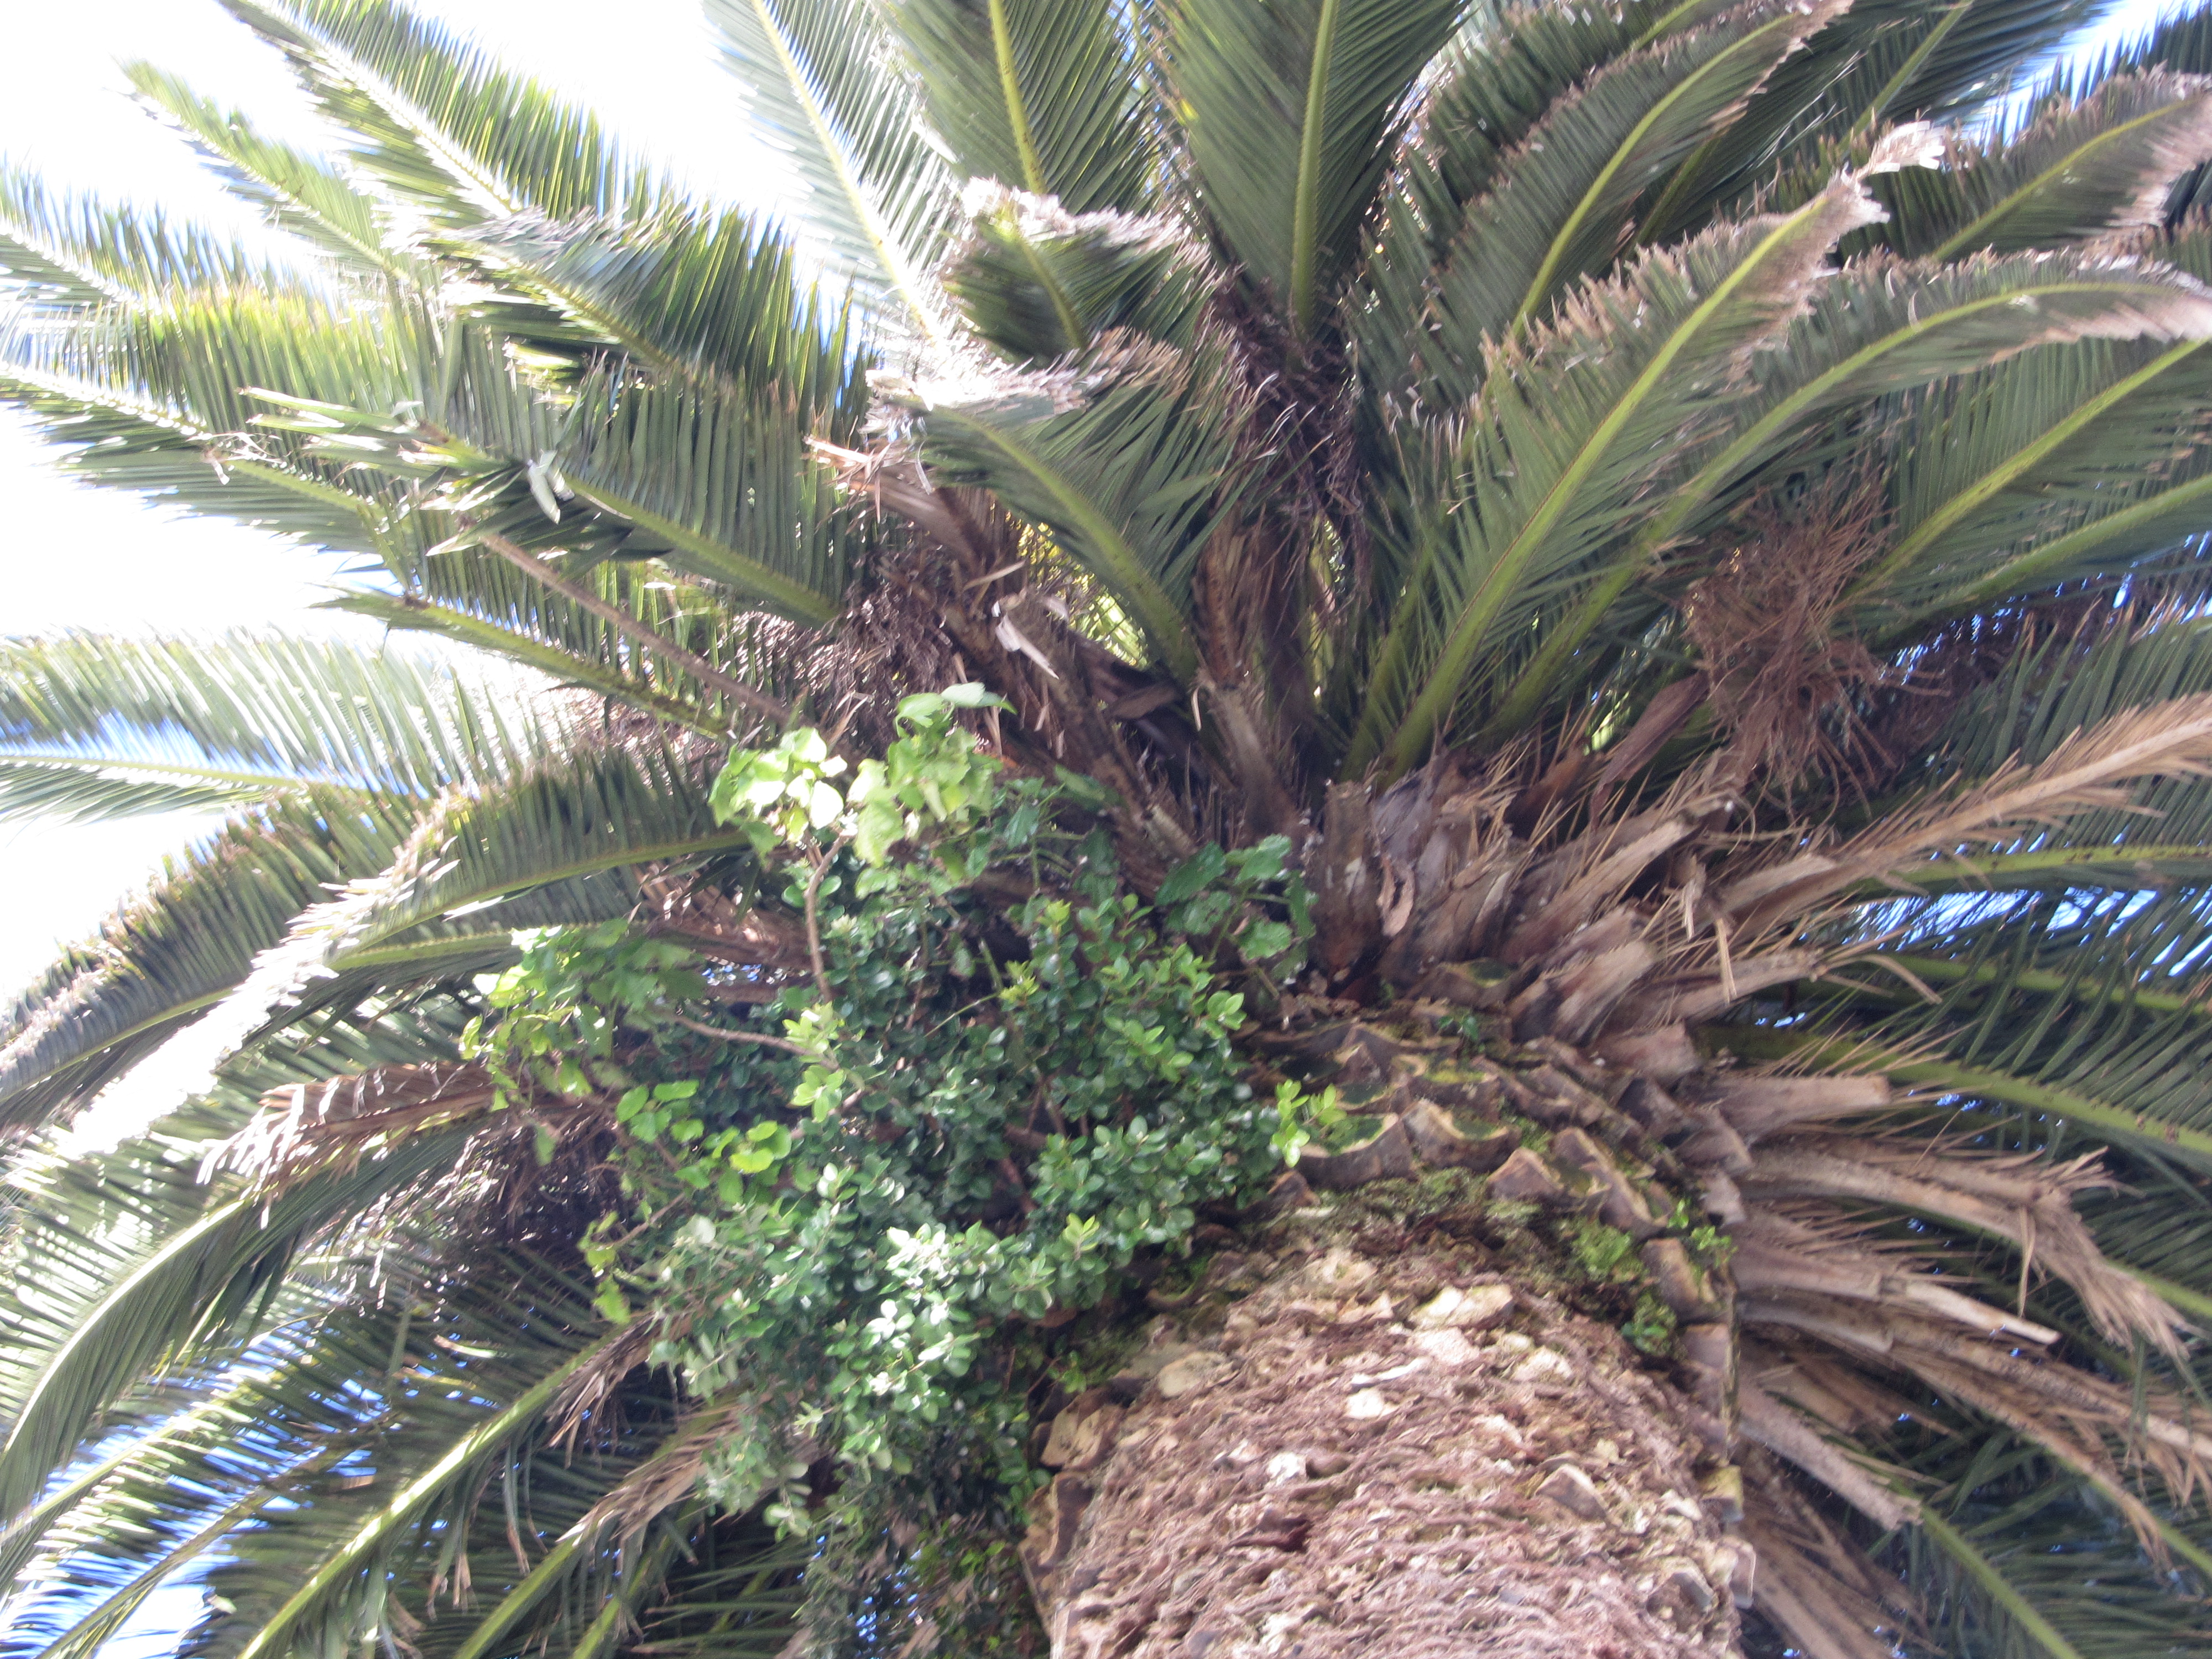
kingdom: Plantae
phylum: Tracheophyta
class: Magnoliopsida
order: Myrtales
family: Myrtaceae
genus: Metrosideros
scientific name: Metrosideros kermadecensis
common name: Pohutukawa
